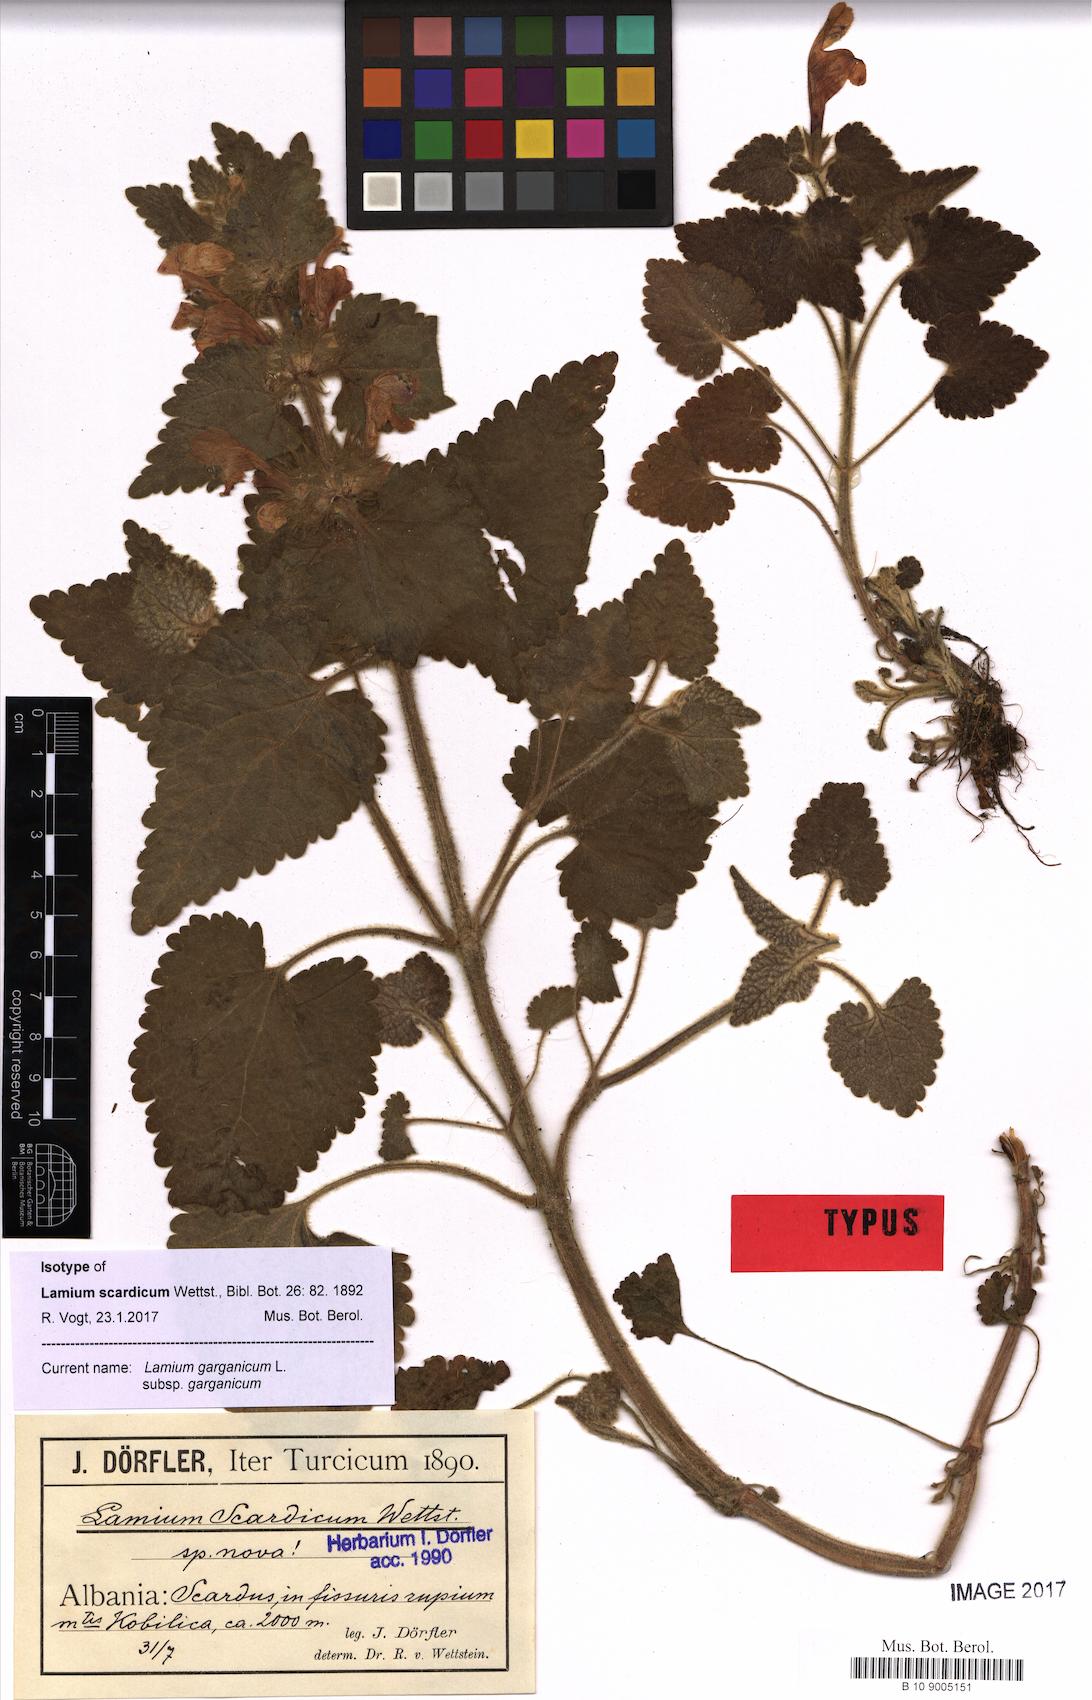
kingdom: Plantae
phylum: Tracheophyta
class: Magnoliopsida
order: Lamiales
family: Lamiaceae
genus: Lamium
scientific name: Lamium garganicum
